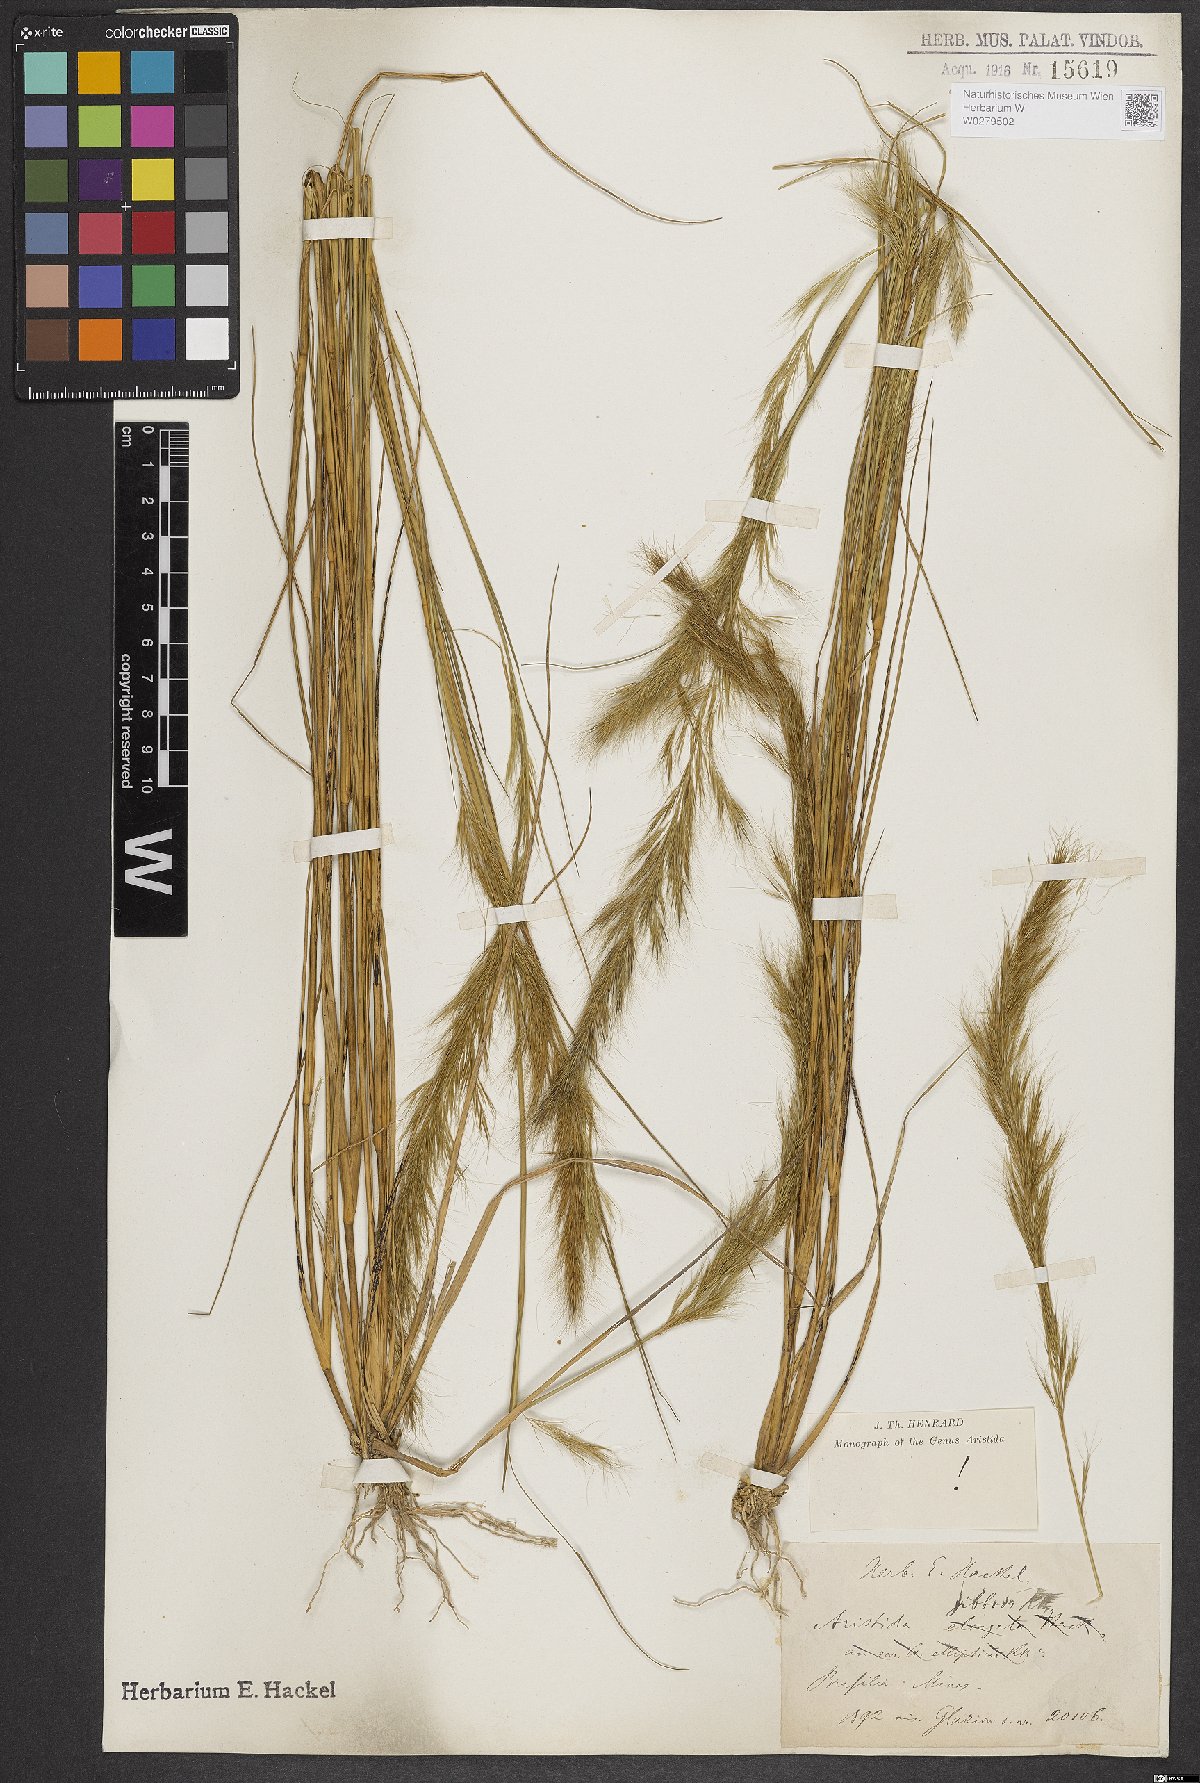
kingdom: Plantae
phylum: Tracheophyta
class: Liliopsida
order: Poales
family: Poaceae
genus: Aristida
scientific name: Aristida gibbosa
